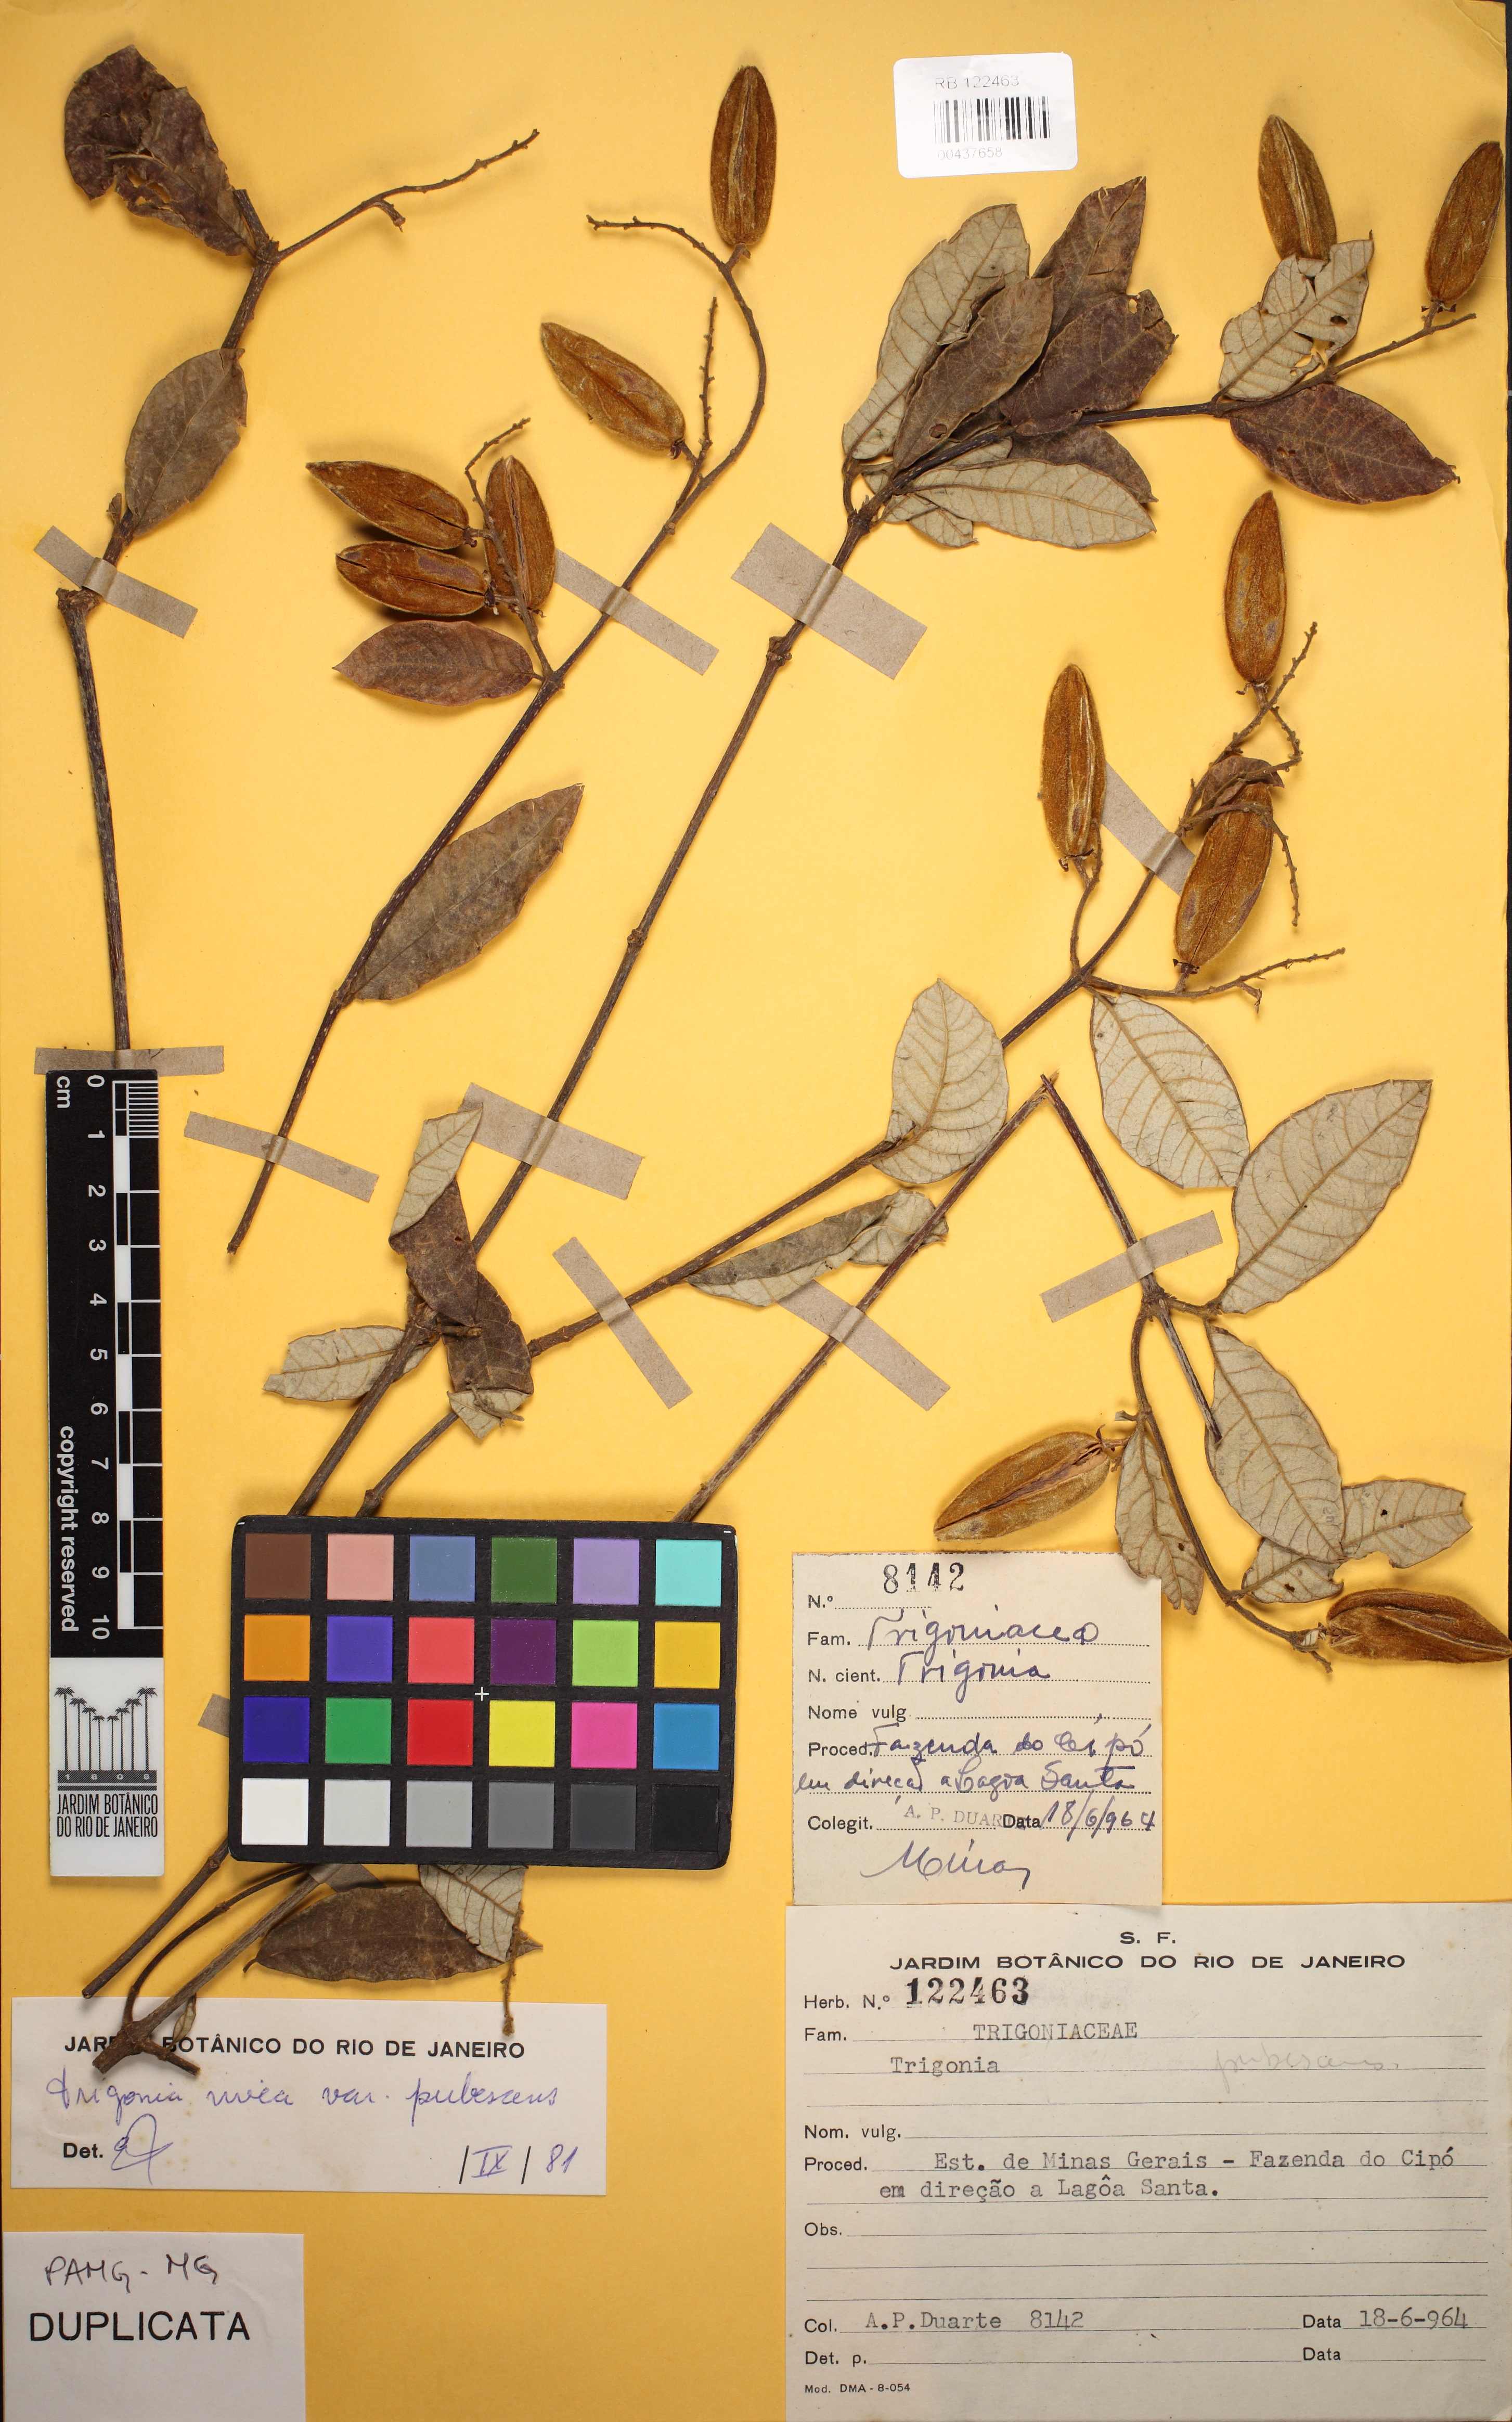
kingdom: Plantae
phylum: Tracheophyta
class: Magnoliopsida
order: Malpighiales
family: Trigoniaceae
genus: Trigonia
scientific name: Trigonia nivea
